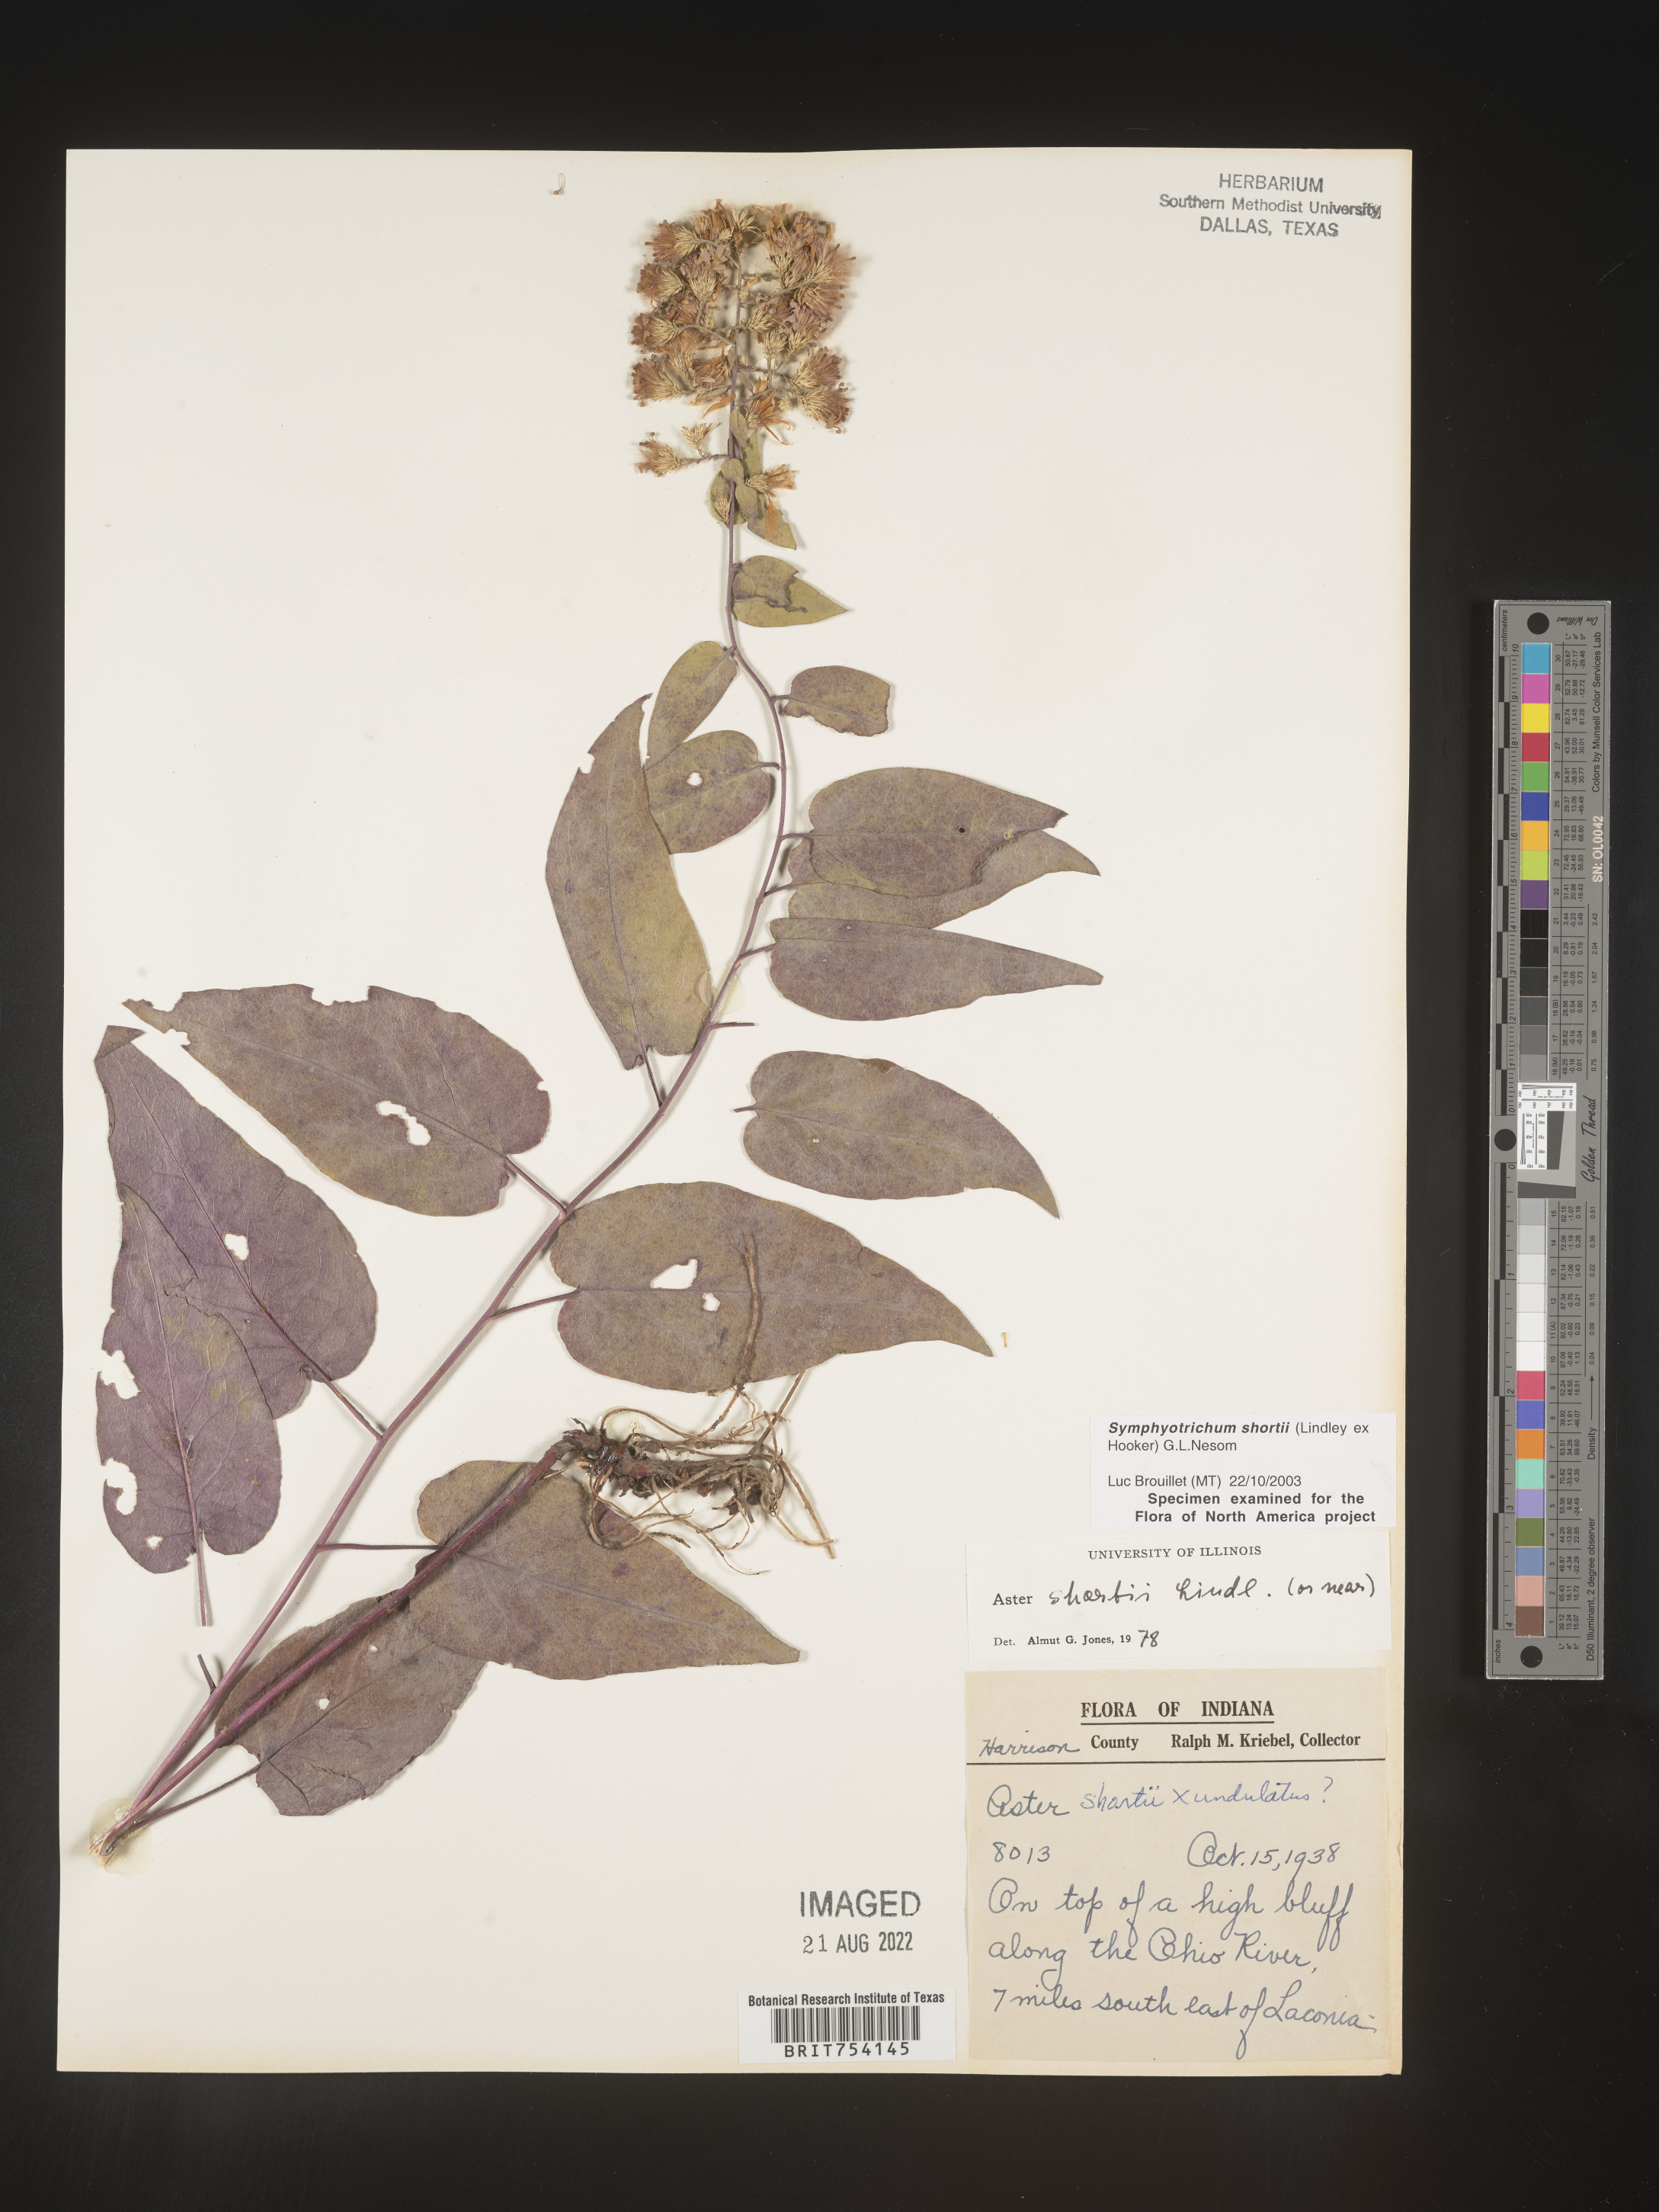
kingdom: Plantae
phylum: Tracheophyta
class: Magnoliopsida
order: Asterales
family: Asteraceae
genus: Symphyotrichum
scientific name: Symphyotrichum shortii
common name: Short's aster
